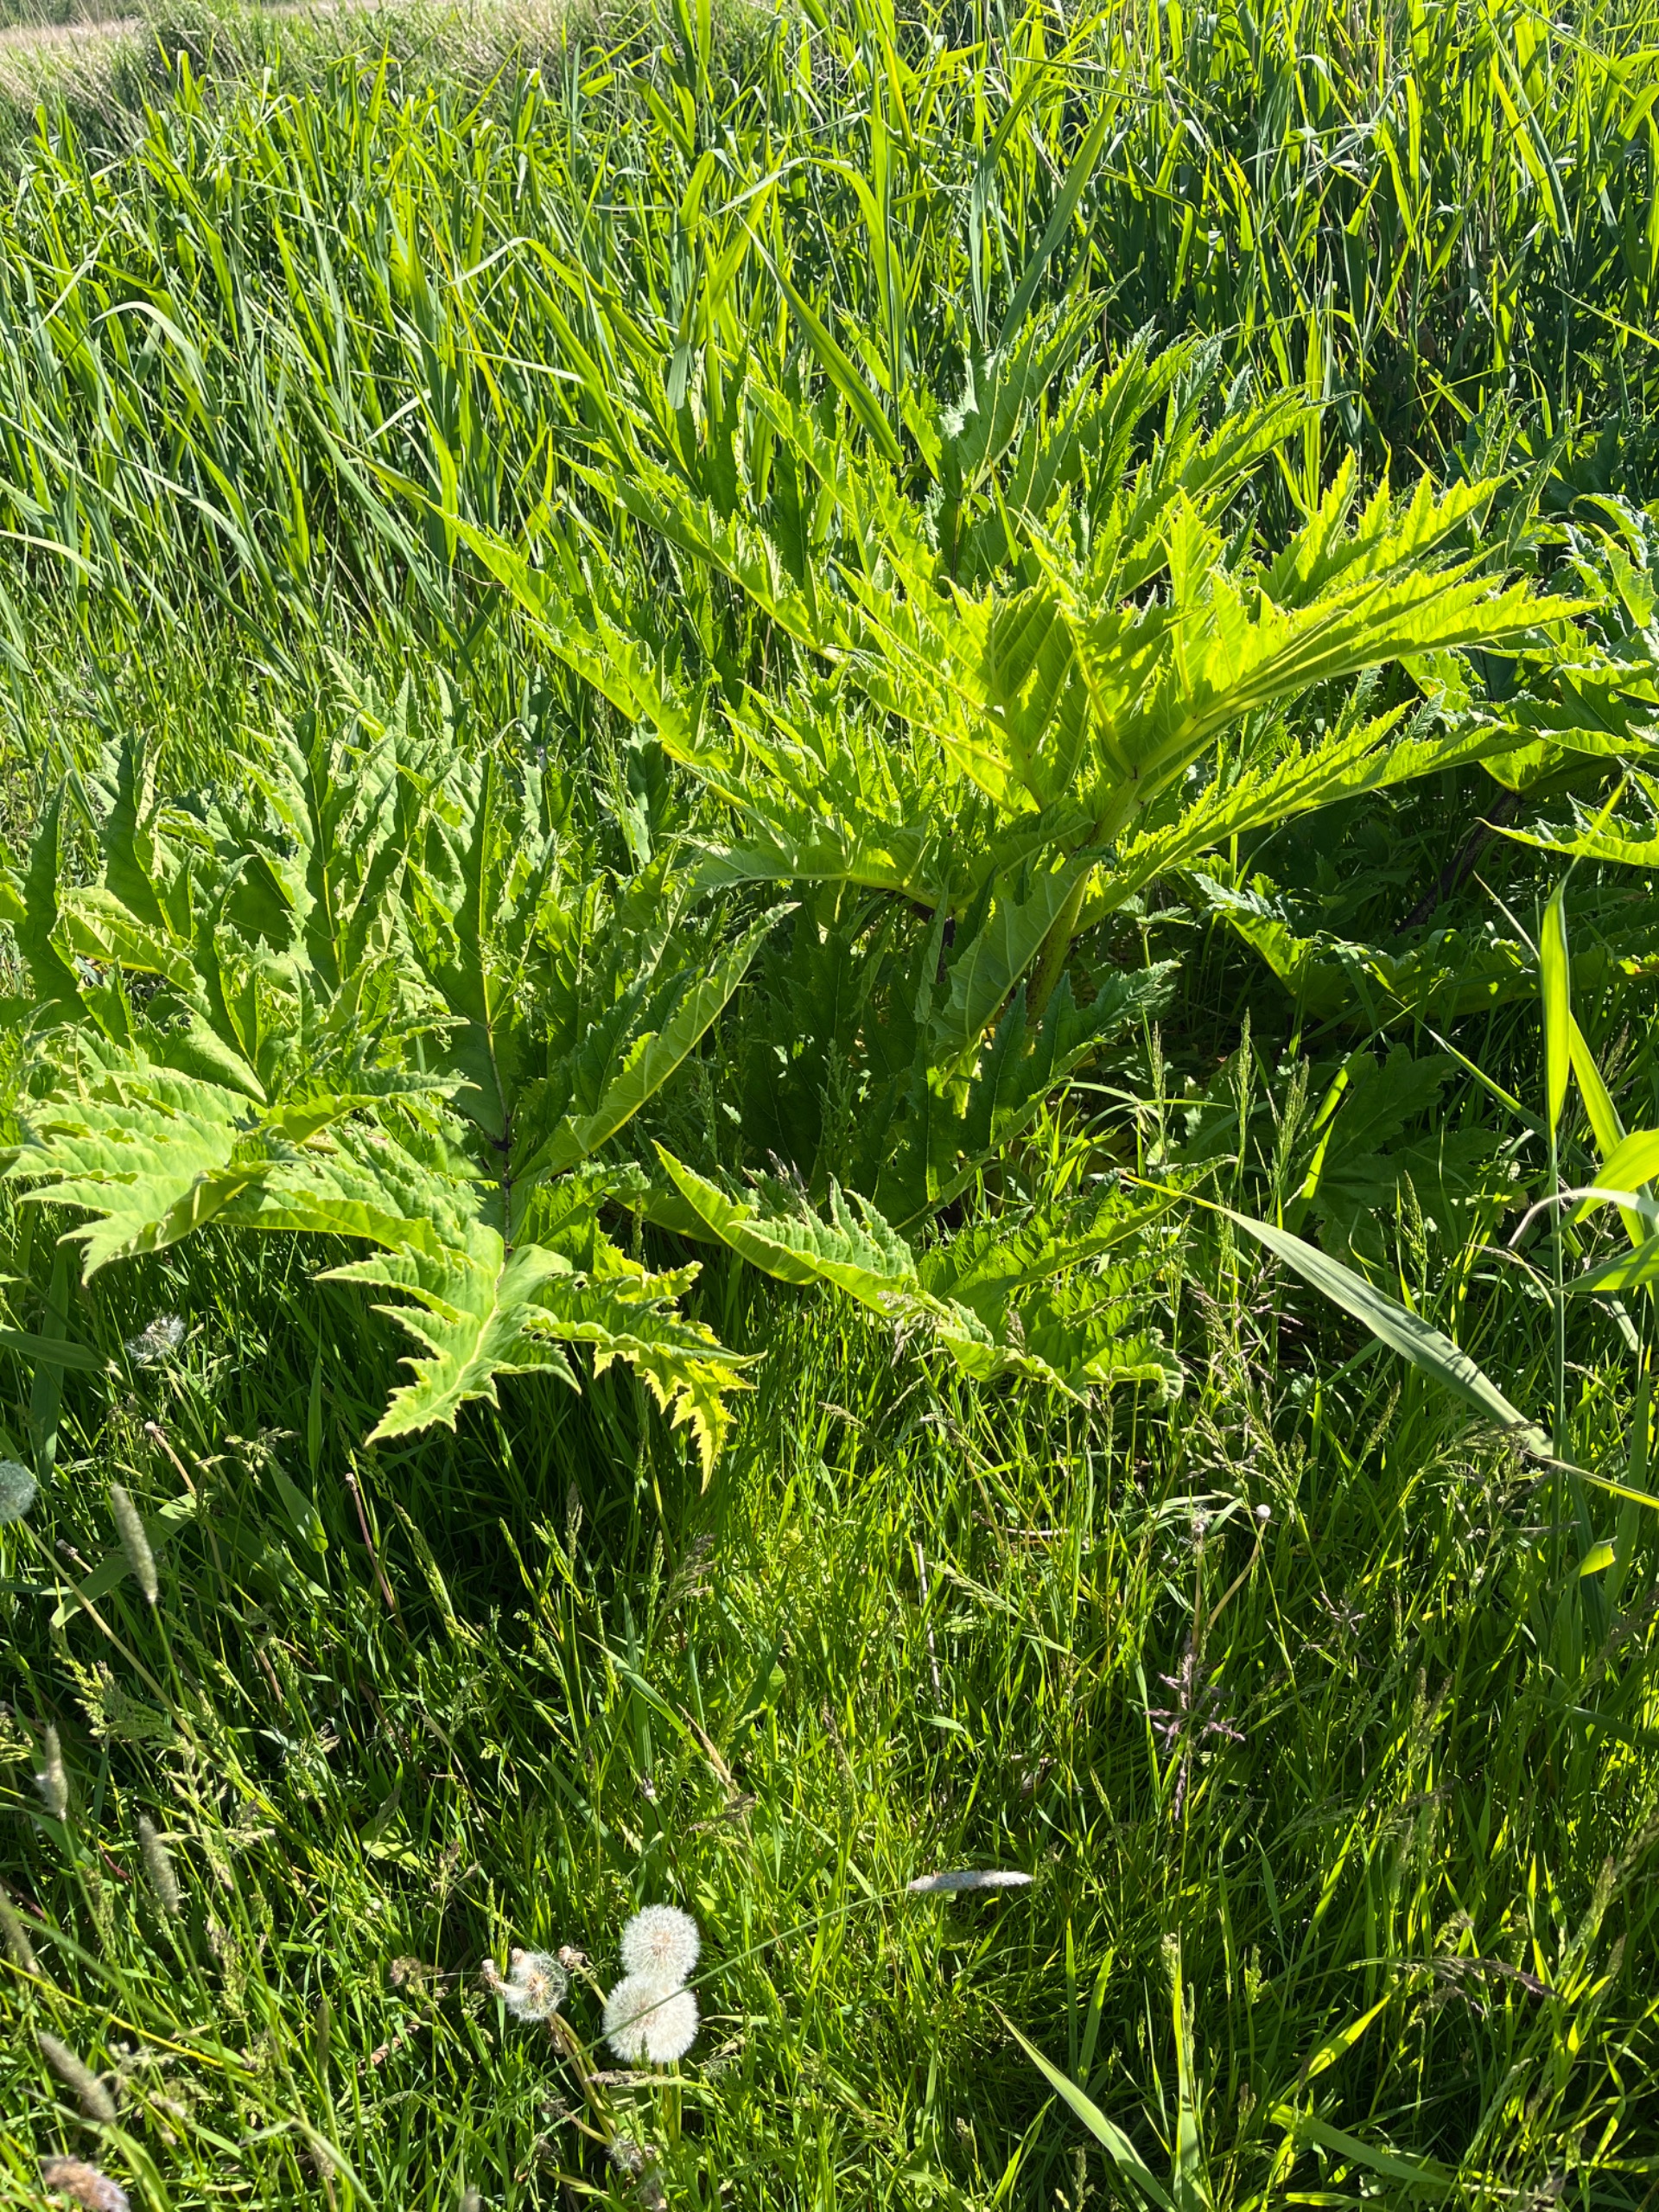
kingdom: Plantae
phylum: Tracheophyta
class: Magnoliopsida
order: Apiales
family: Apiaceae
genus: Heracleum
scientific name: Heracleum mantegazzianum
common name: Kæmpe-bjørneklo
